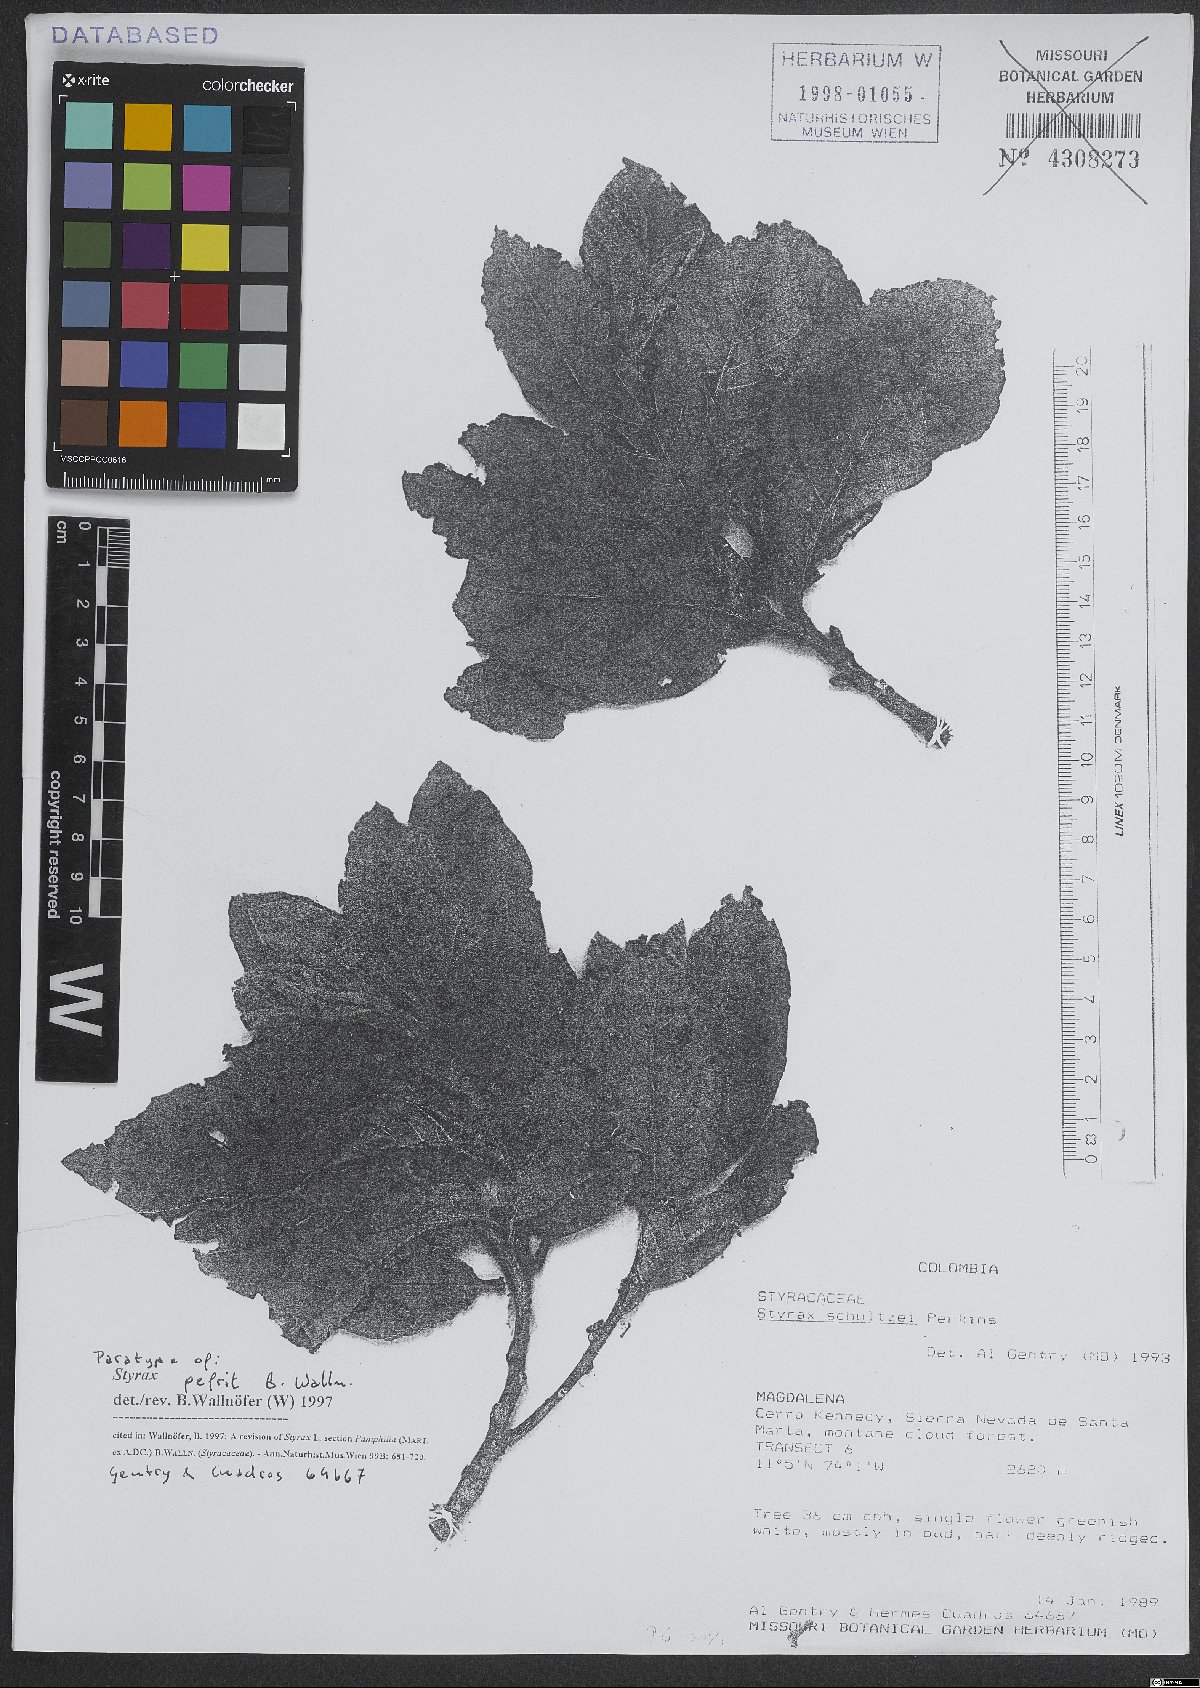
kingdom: Plantae
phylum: Tracheophyta
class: Magnoliopsida
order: Ericales
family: Styracaceae
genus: Styrax
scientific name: Styrax pefrit
